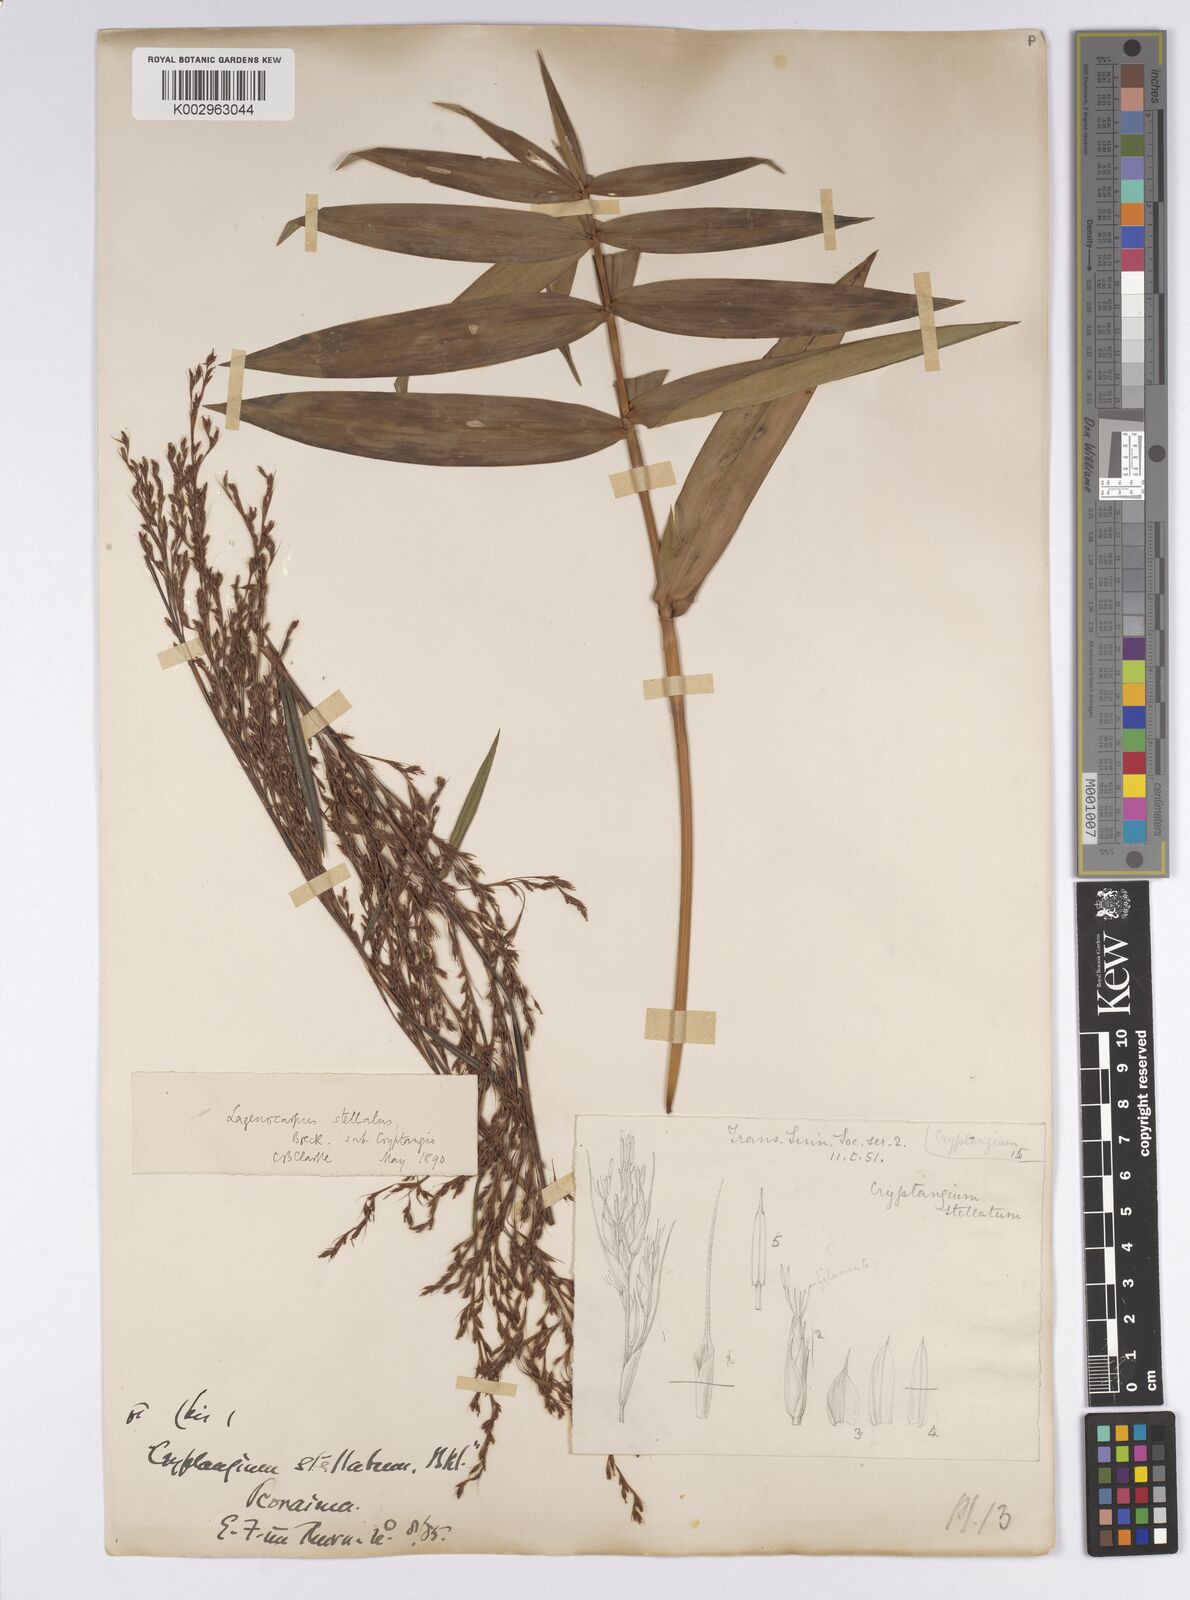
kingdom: Plantae
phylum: Tracheophyta
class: Liliopsida
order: Poales
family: Cyperaceae
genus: Didymiandrum
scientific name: Didymiandrum stellatum
